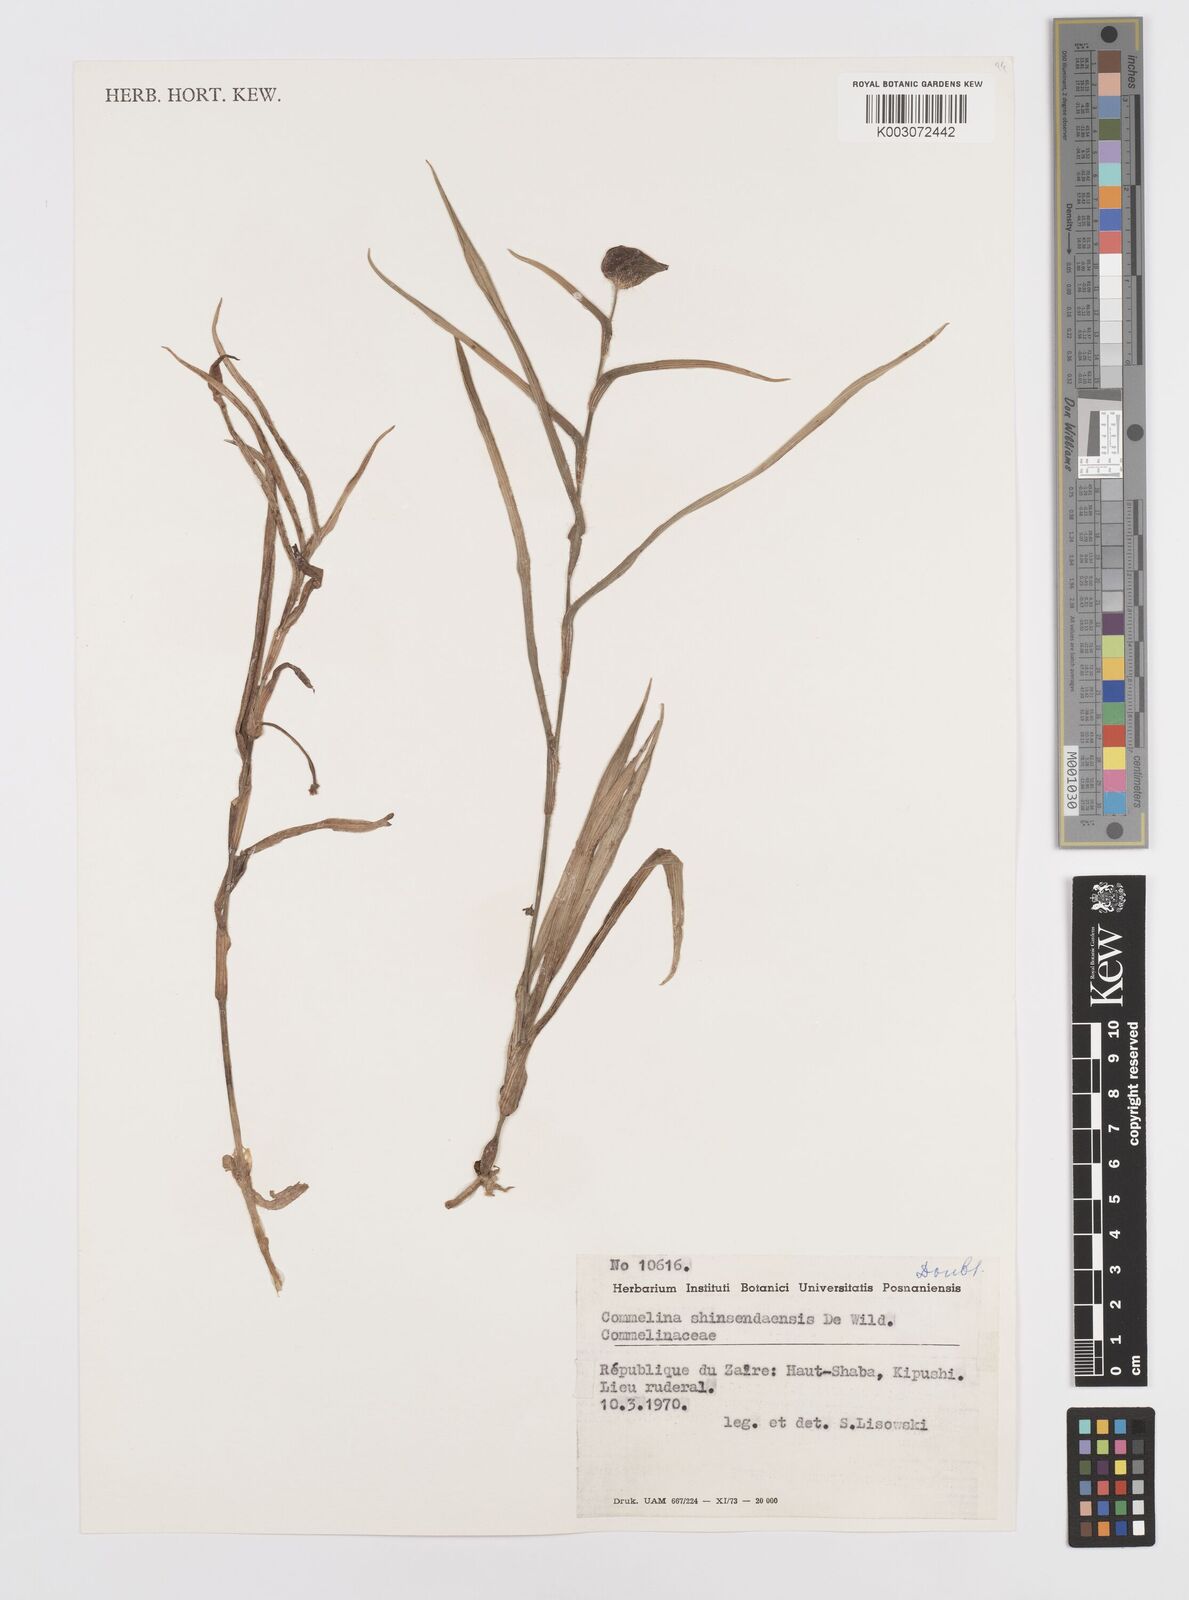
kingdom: Plantae
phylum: Tracheophyta
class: Liliopsida
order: Commelinales
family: Commelinaceae
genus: Commelina
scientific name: Commelina shinsendaensis
